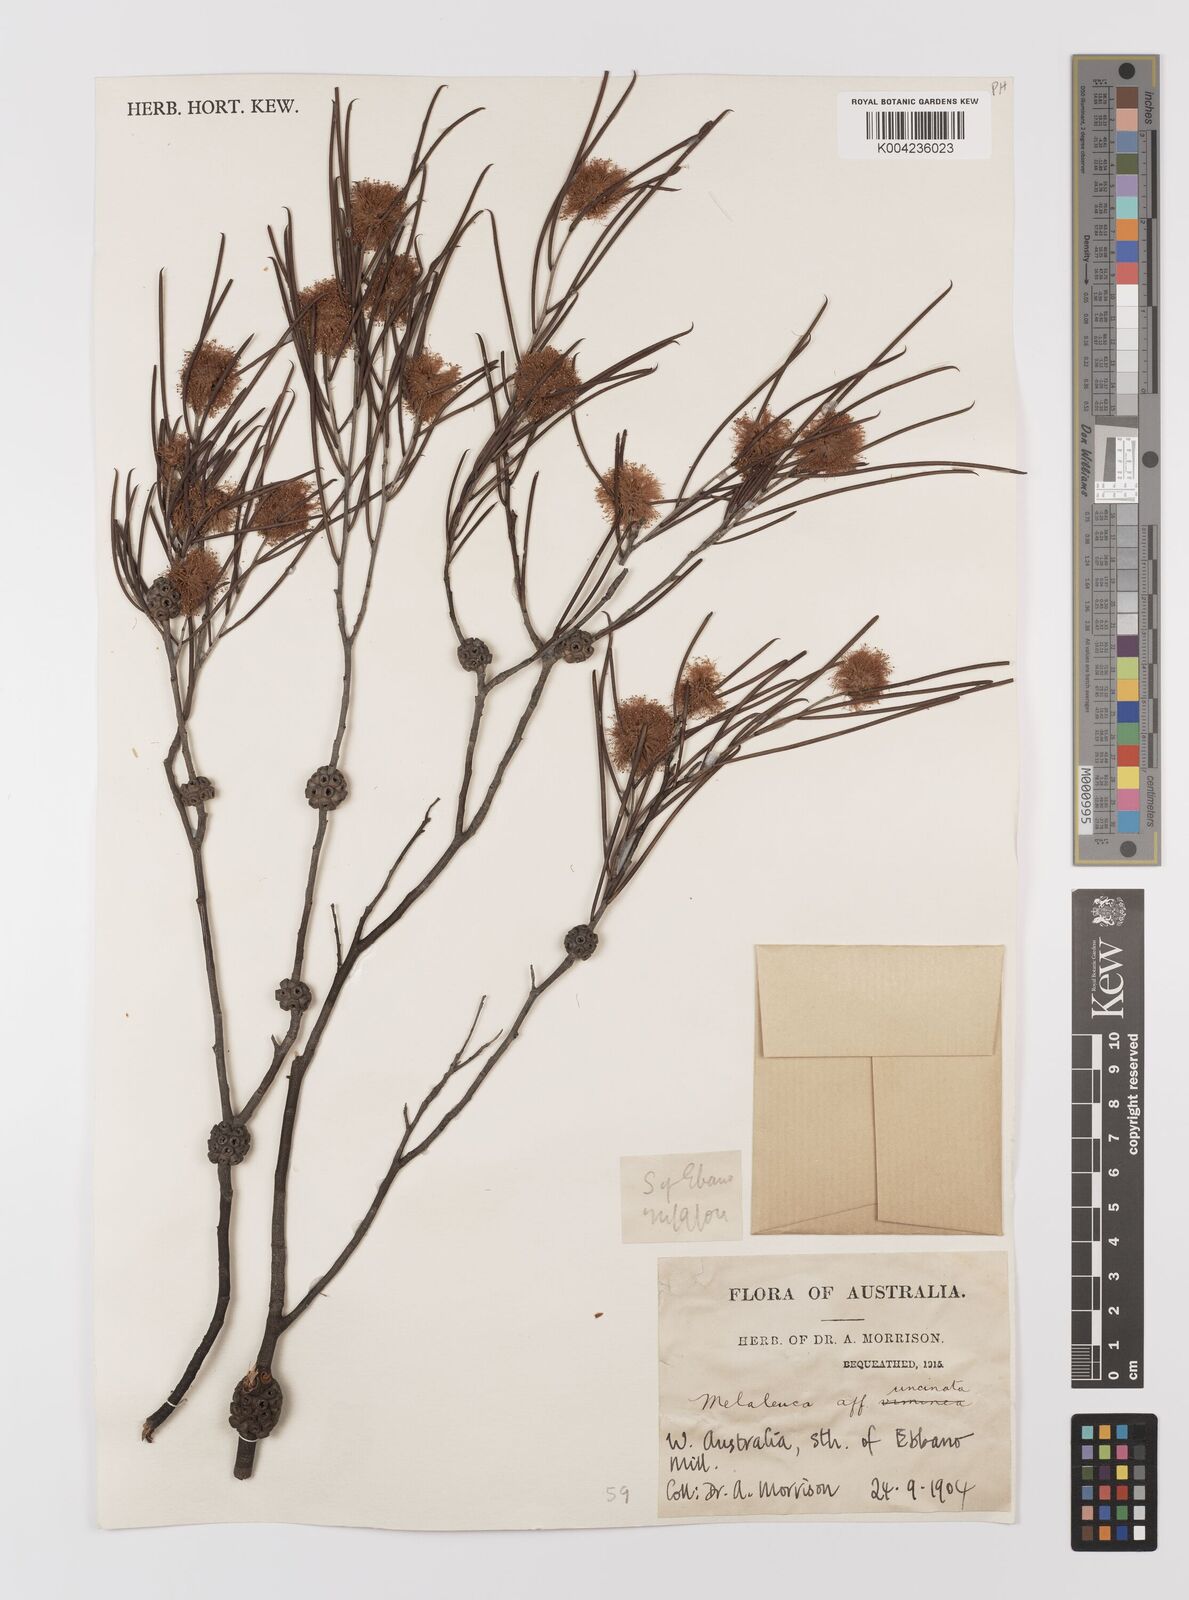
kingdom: Plantae
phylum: Tracheophyta
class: Magnoliopsida
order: Myrtales
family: Myrtaceae
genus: Melaleuca
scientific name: Melaleuca uncinata
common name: Broom honey myrtle
